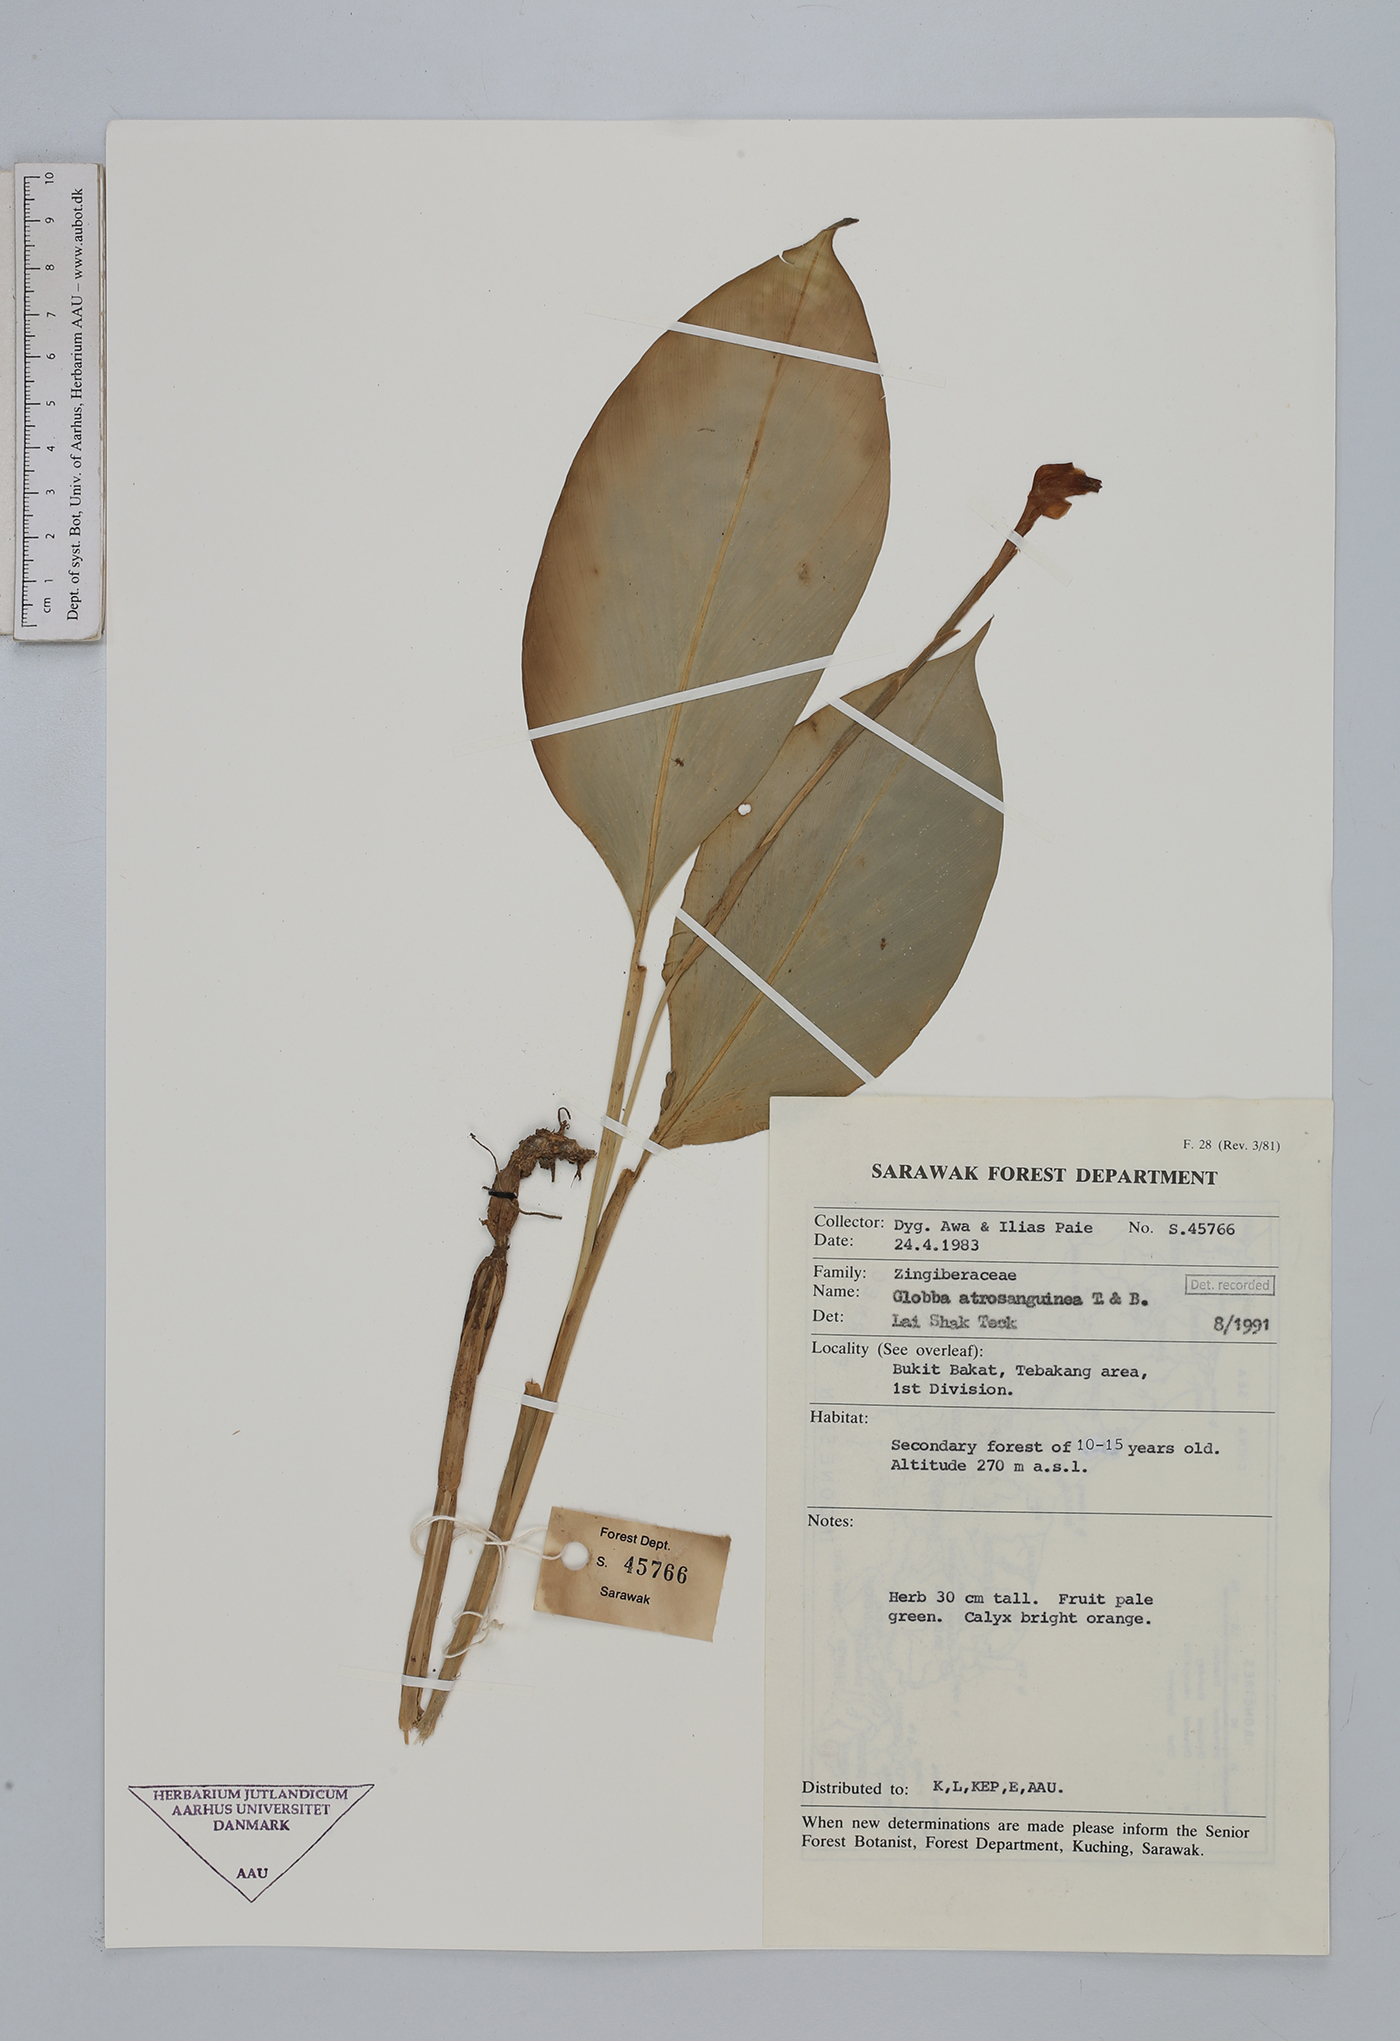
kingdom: Plantae
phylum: Tracheophyta
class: Liliopsida
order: Zingiberales
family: Zingiberaceae
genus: Globba
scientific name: Globba atrosanguinea
